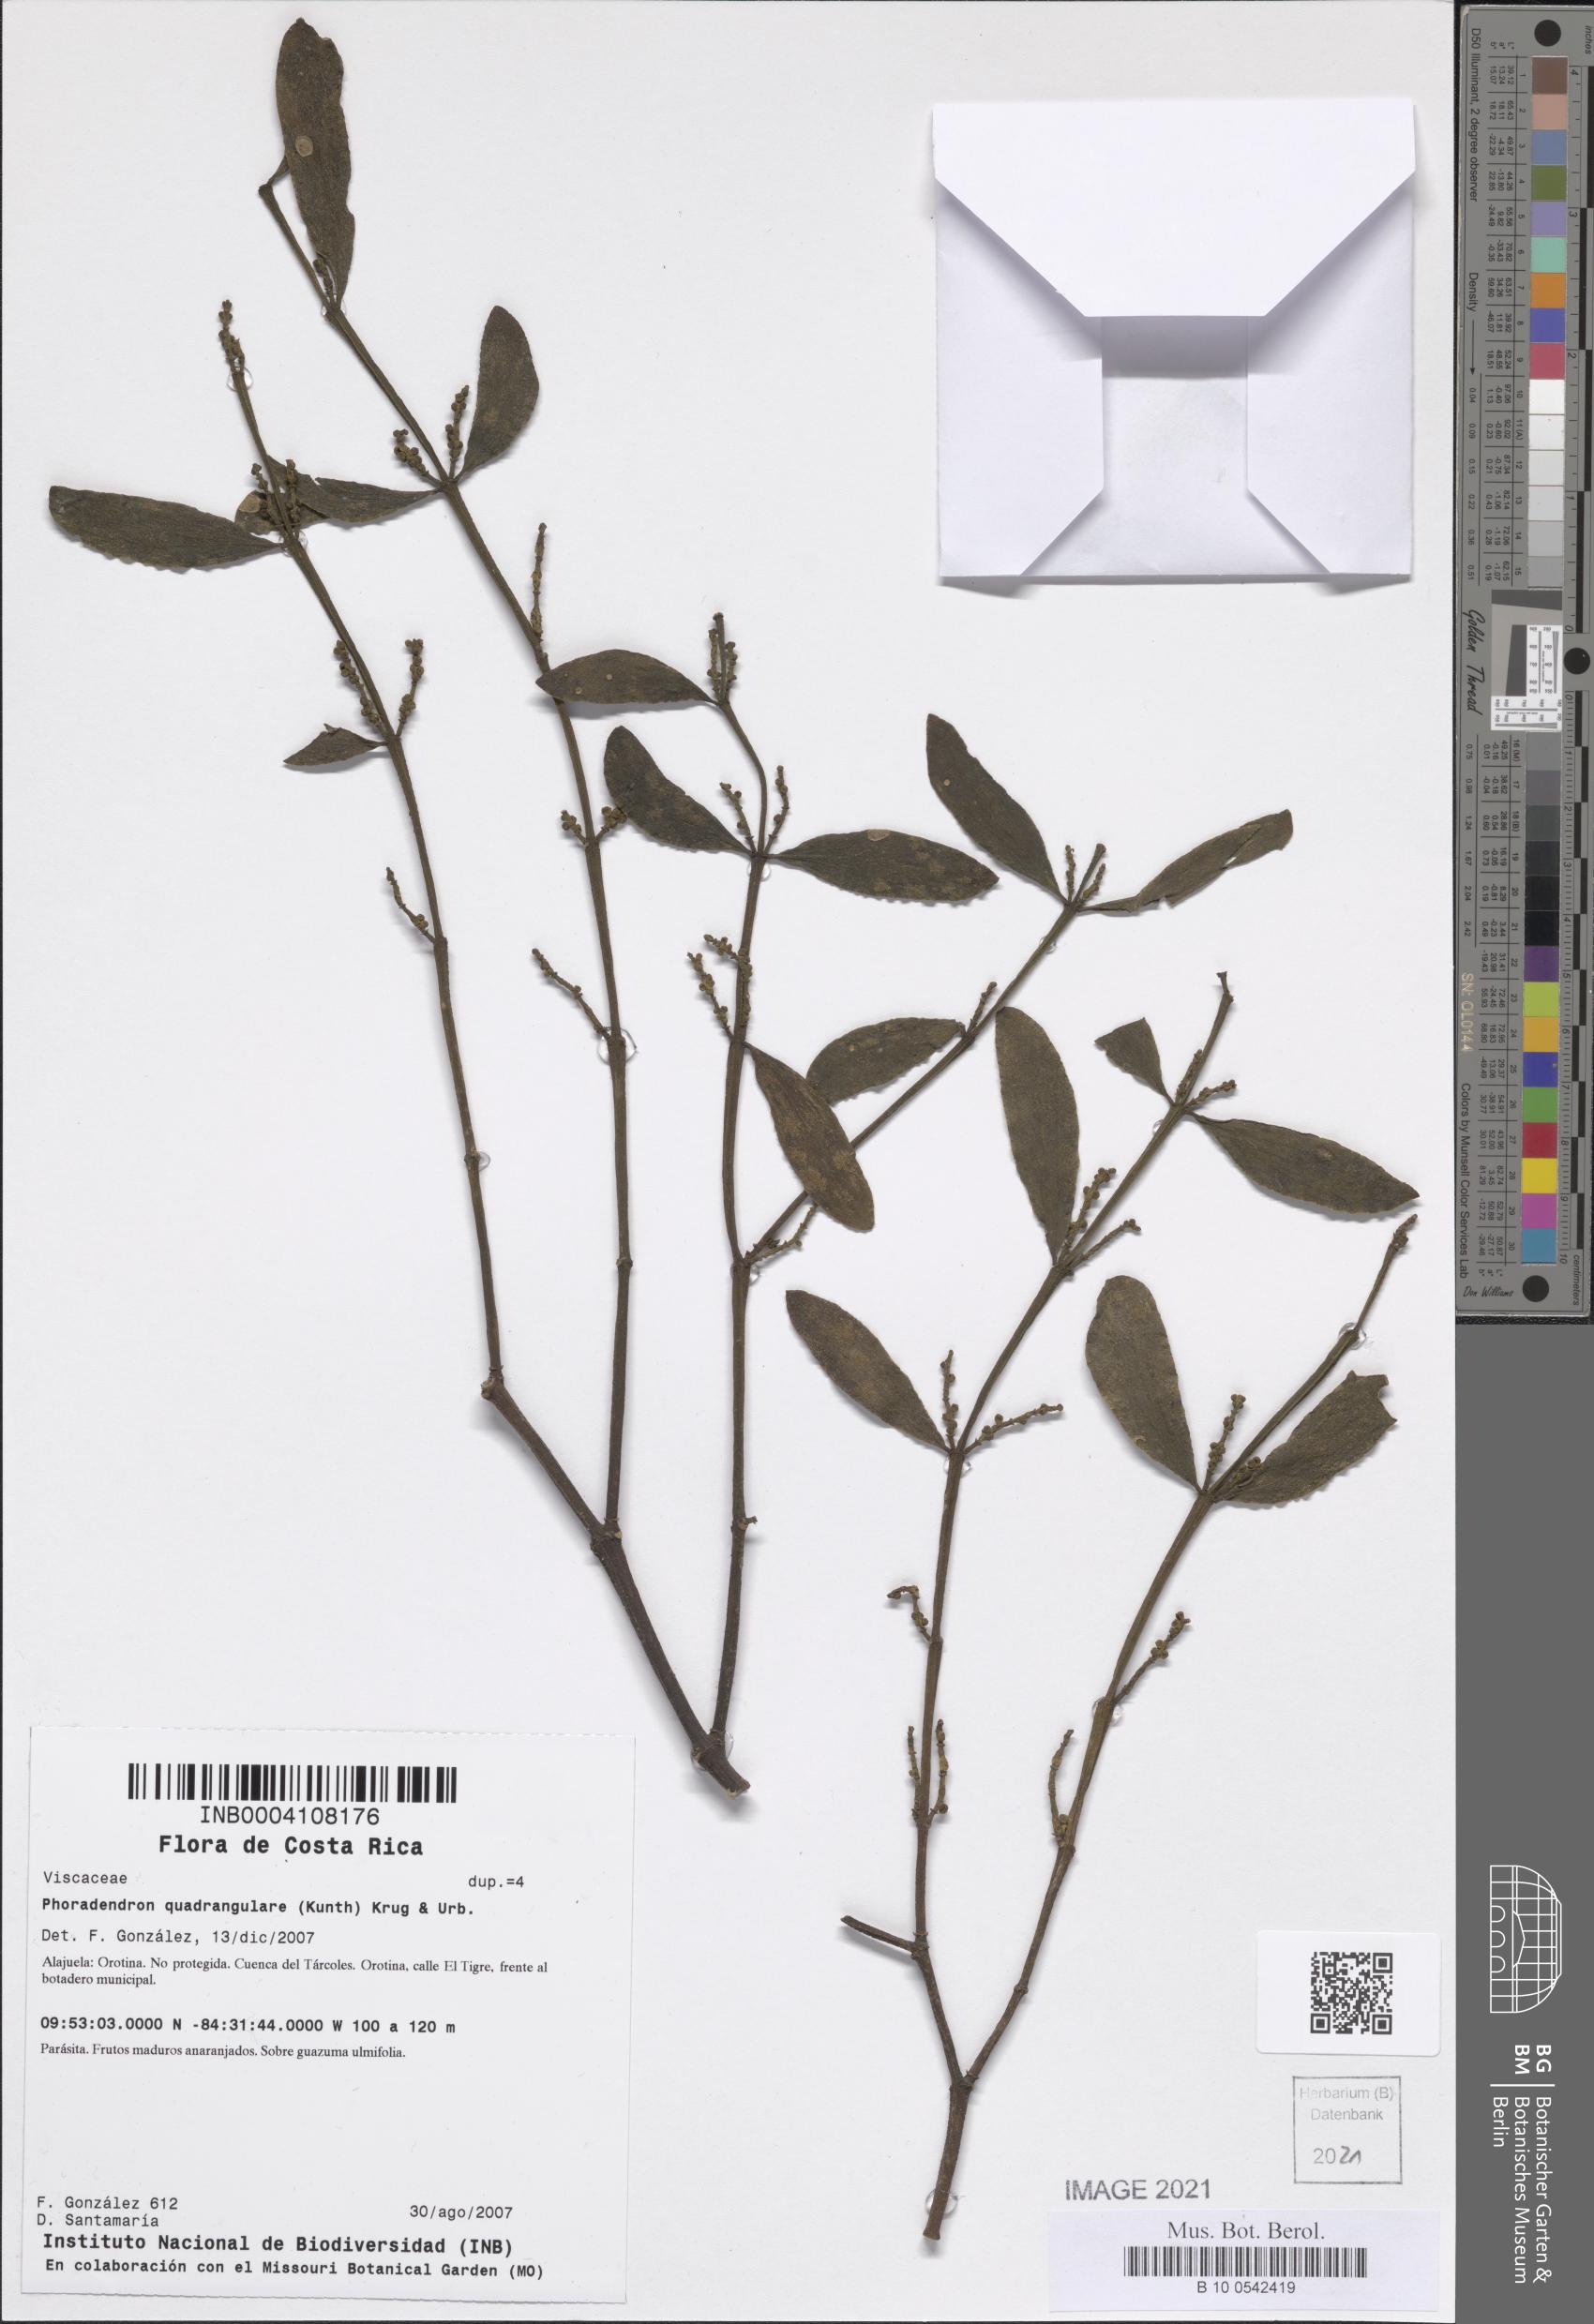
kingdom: Plantae
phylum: Tracheophyta
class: Magnoliopsida
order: Santalales
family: Viscaceae
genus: Phoradendron
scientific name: Phoradendron quadrangulare
